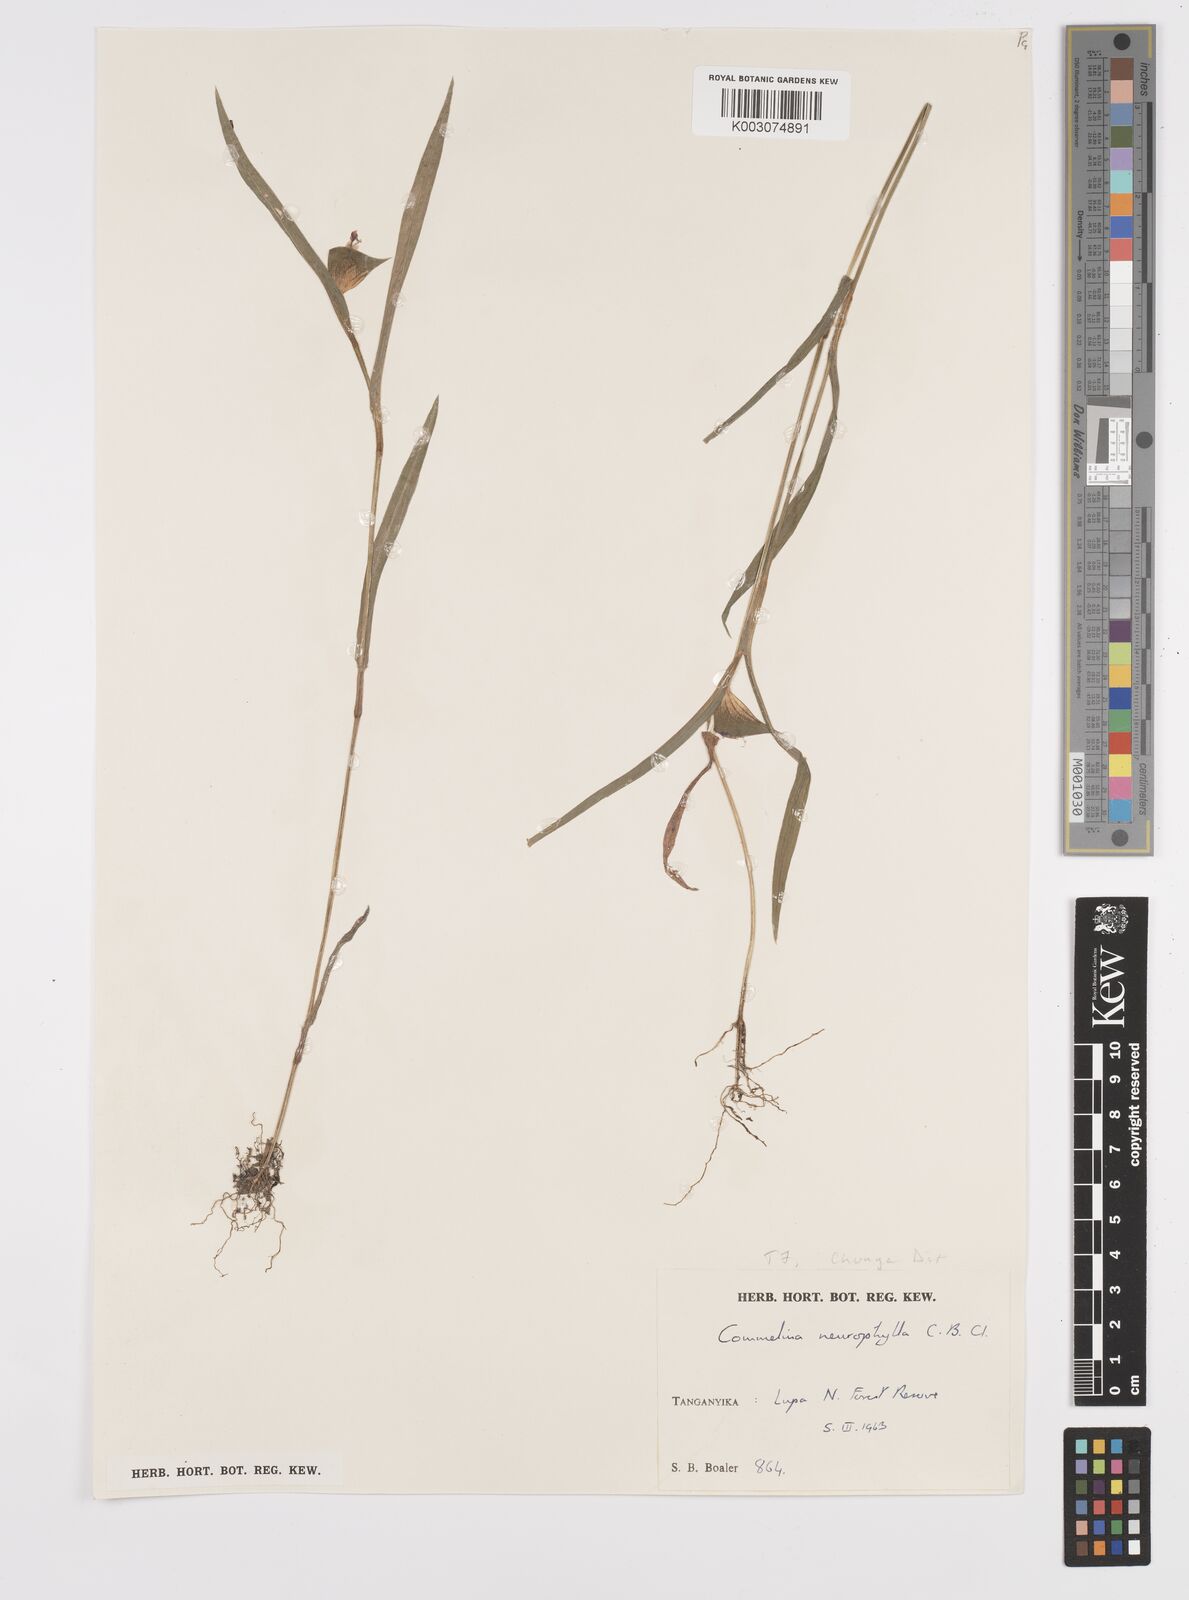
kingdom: Plantae
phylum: Tracheophyta
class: Liliopsida
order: Commelinales
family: Commelinaceae
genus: Commelina
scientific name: Commelina neurophylla
